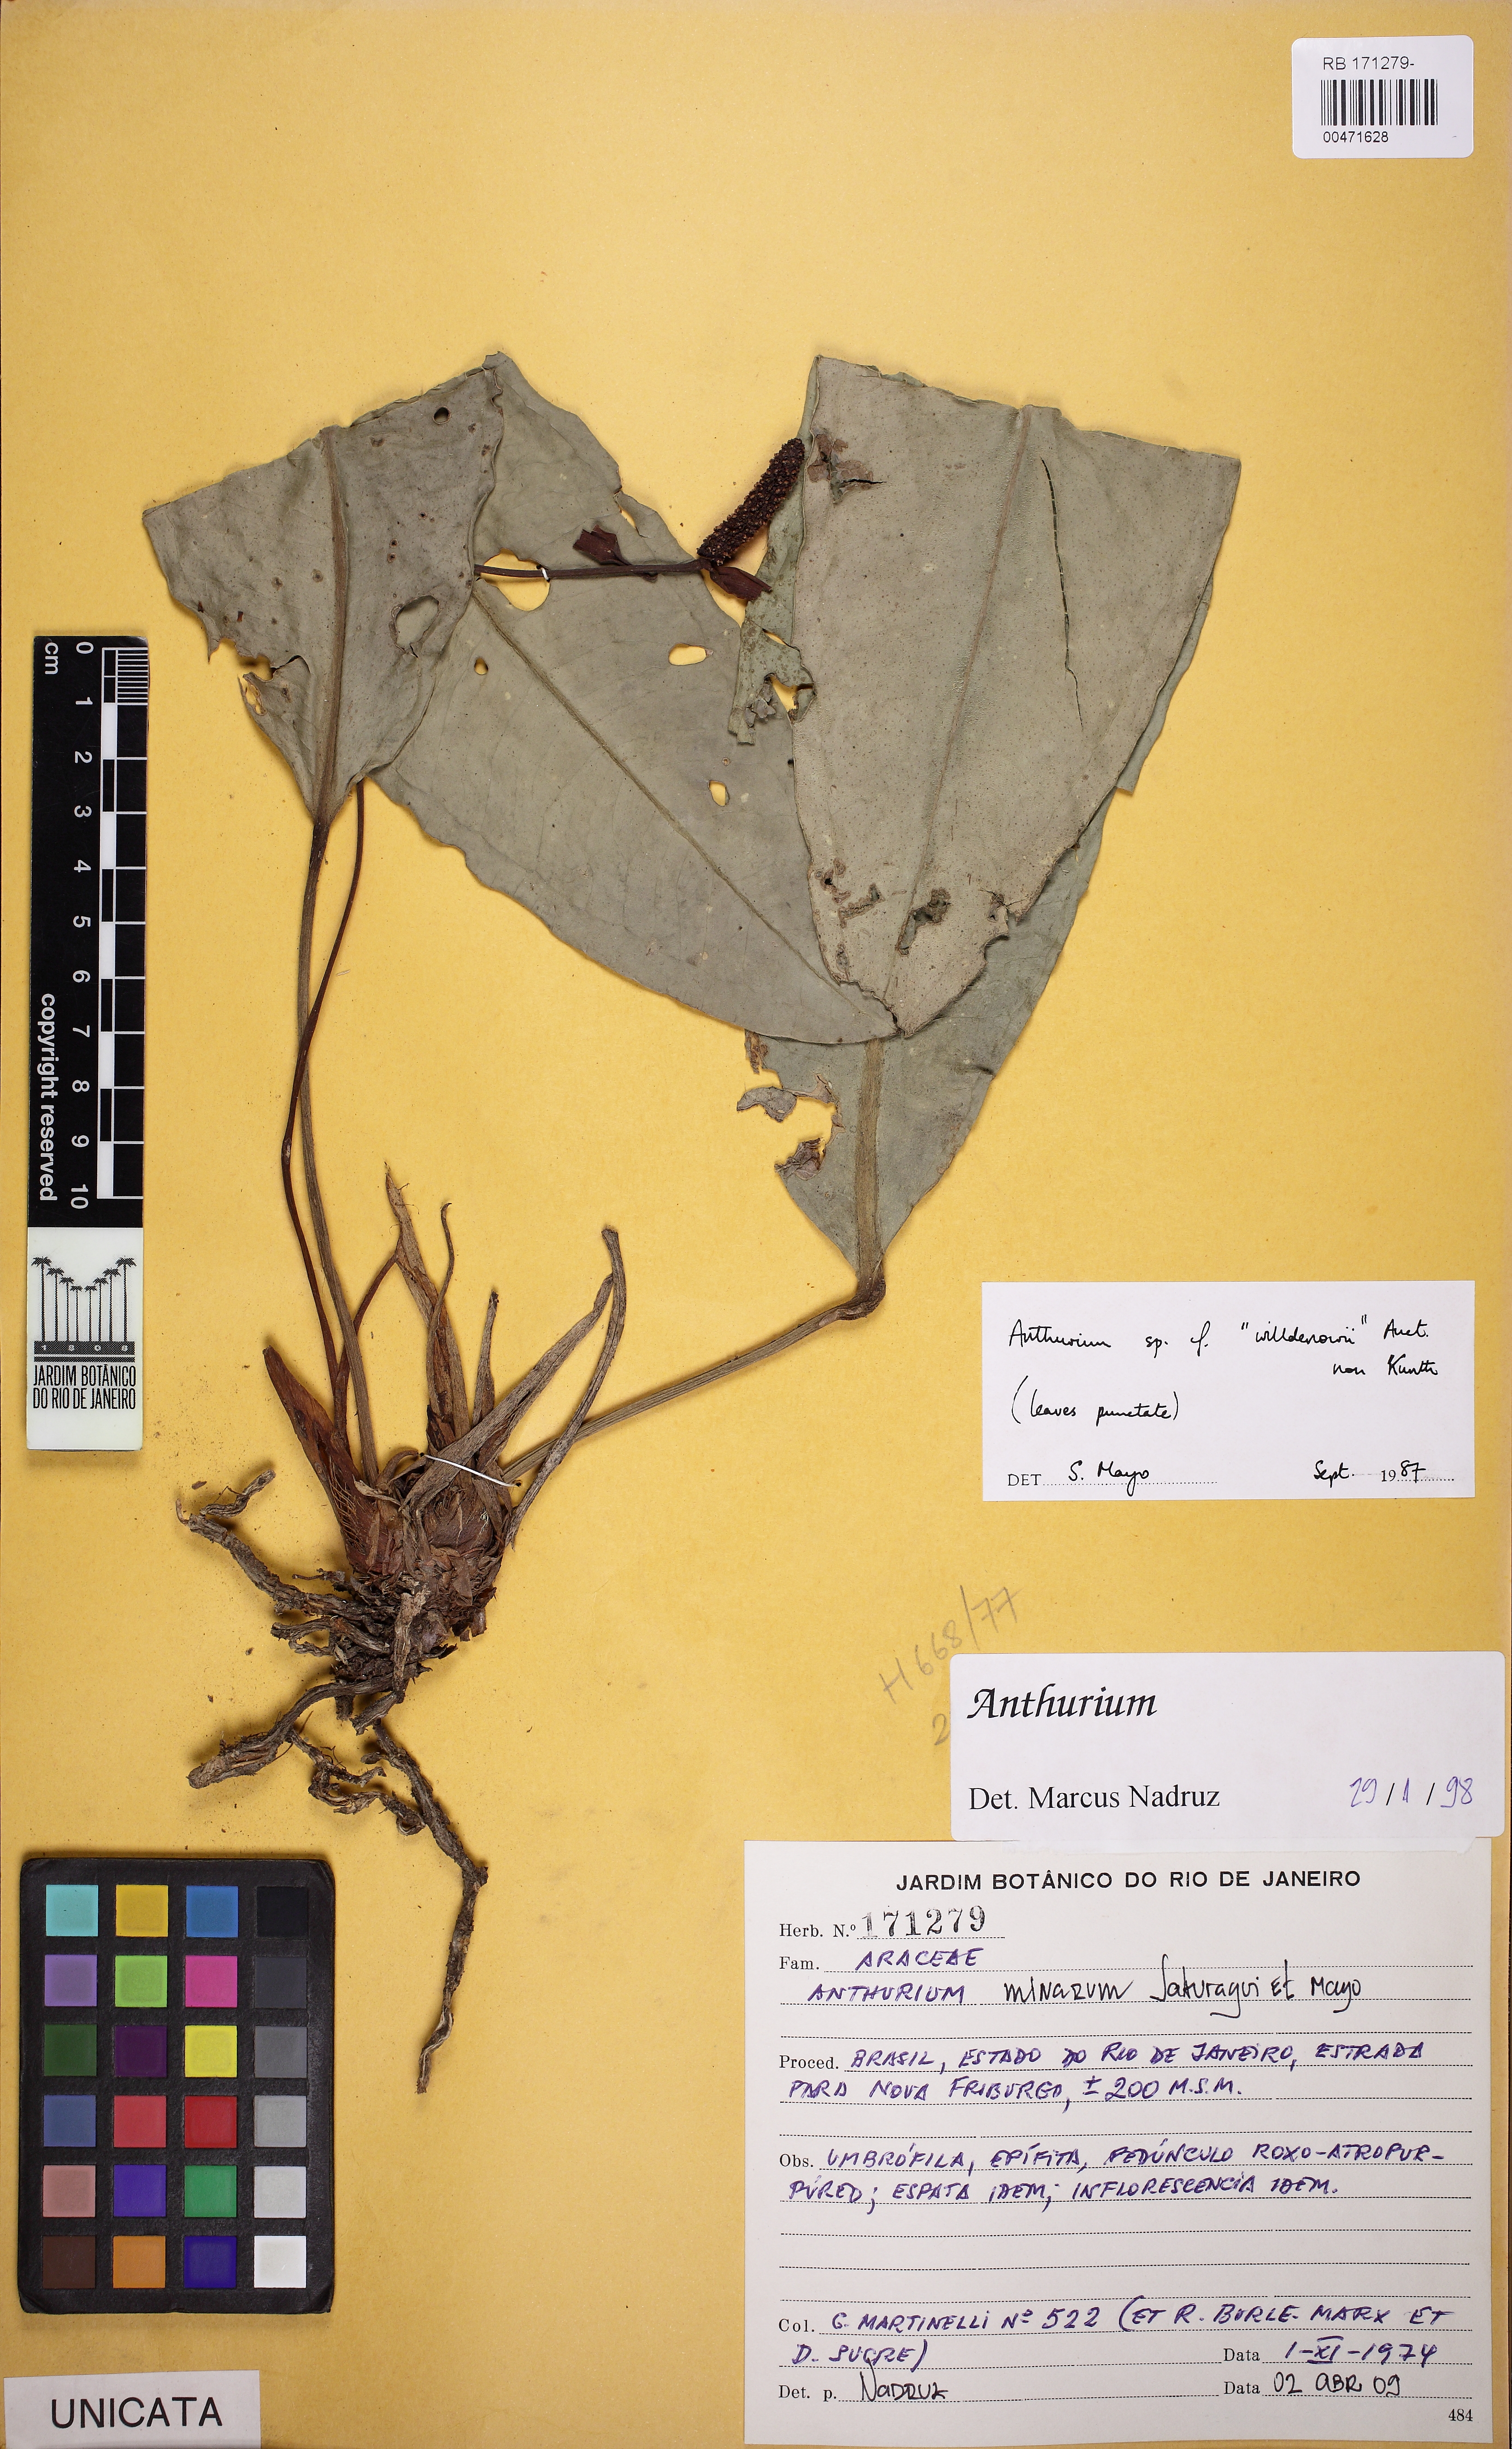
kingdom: Plantae
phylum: Tracheophyta
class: Liliopsida
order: Alismatales
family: Araceae
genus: Anthurium
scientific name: Anthurium minarum
